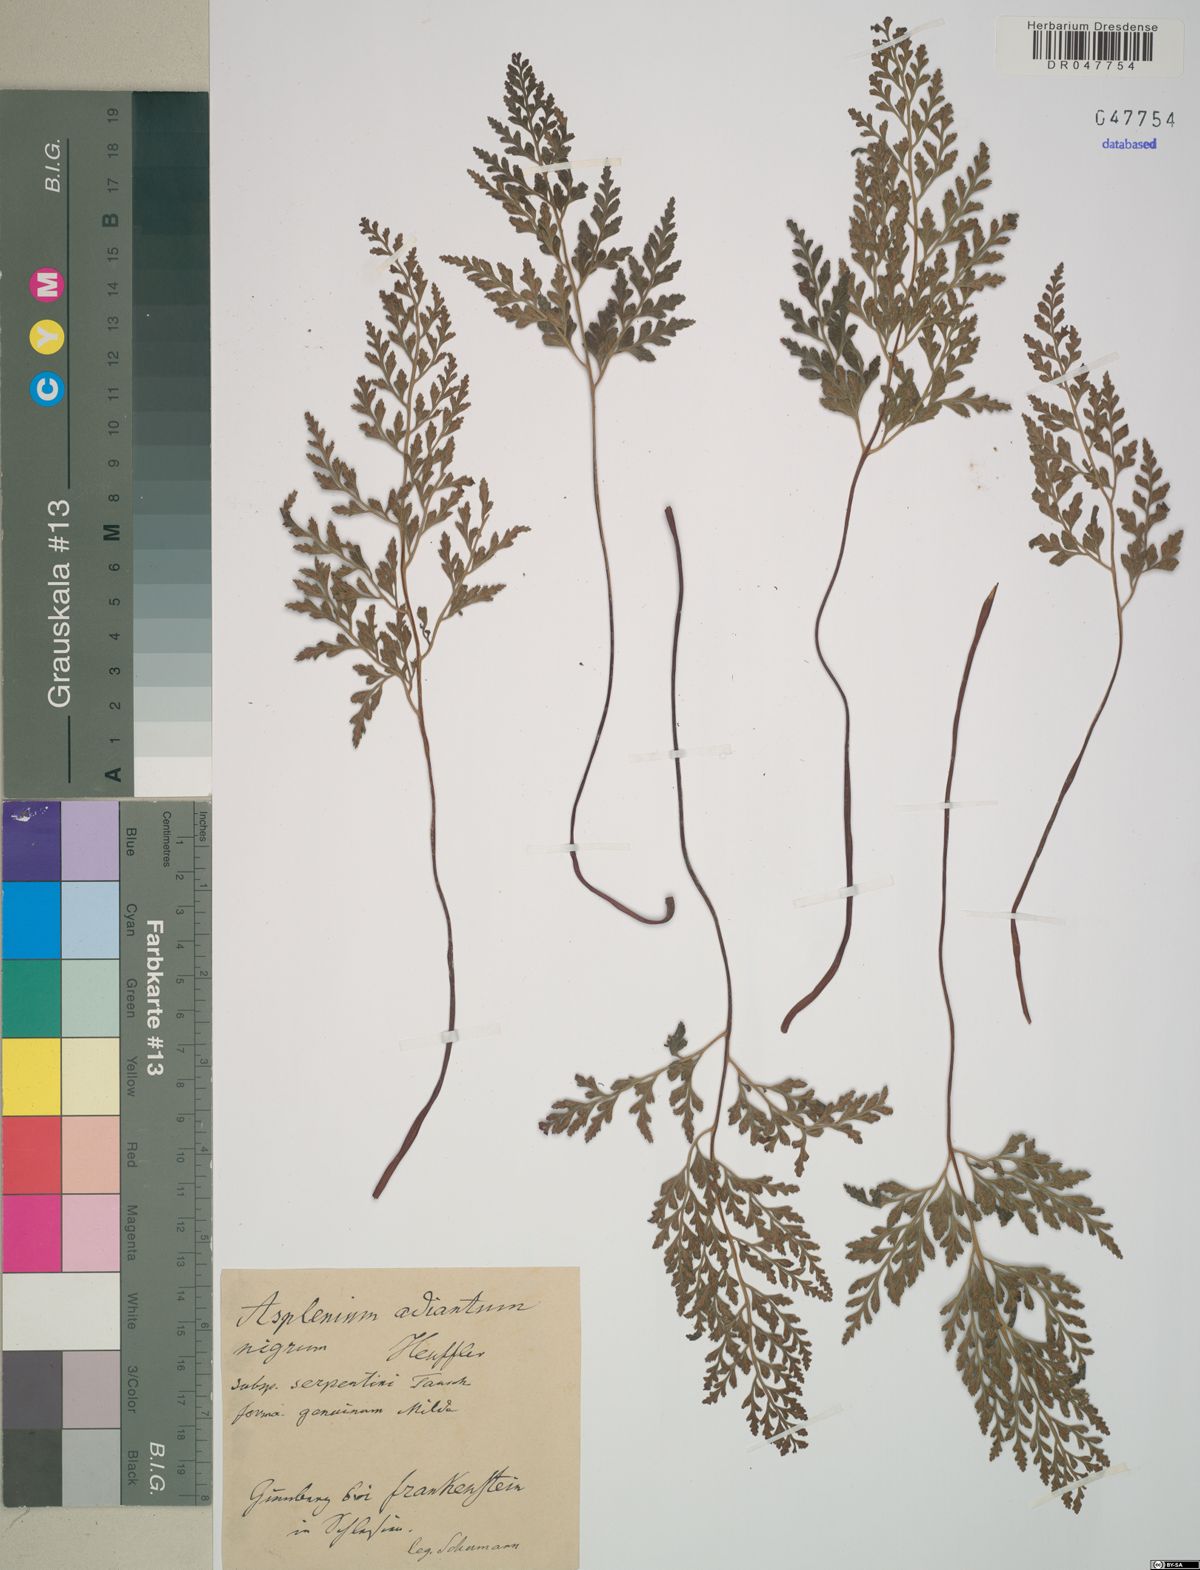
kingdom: Plantae
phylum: Tracheophyta
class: Polypodiopsida
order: Polypodiales
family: Aspleniaceae
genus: Asplenium
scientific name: Asplenium cuneifolium
